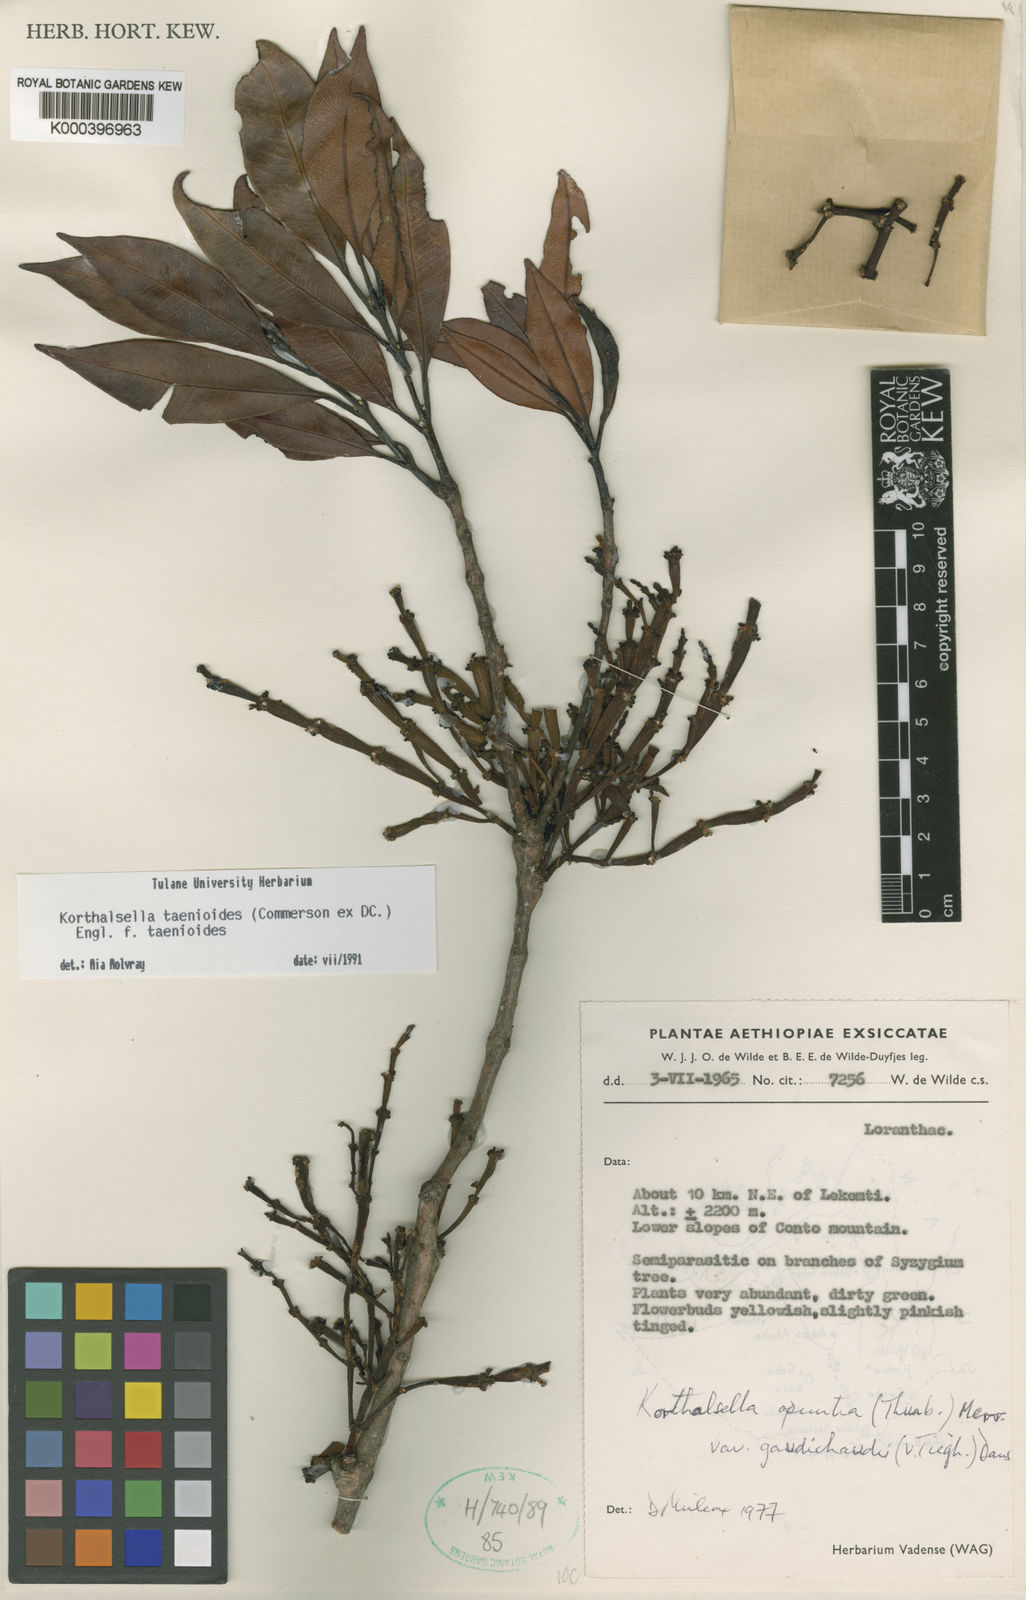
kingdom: Plantae
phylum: Tracheophyta
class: Magnoliopsida
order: Santalales
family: Viscaceae
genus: Korthalsella
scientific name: Korthalsella japonica
